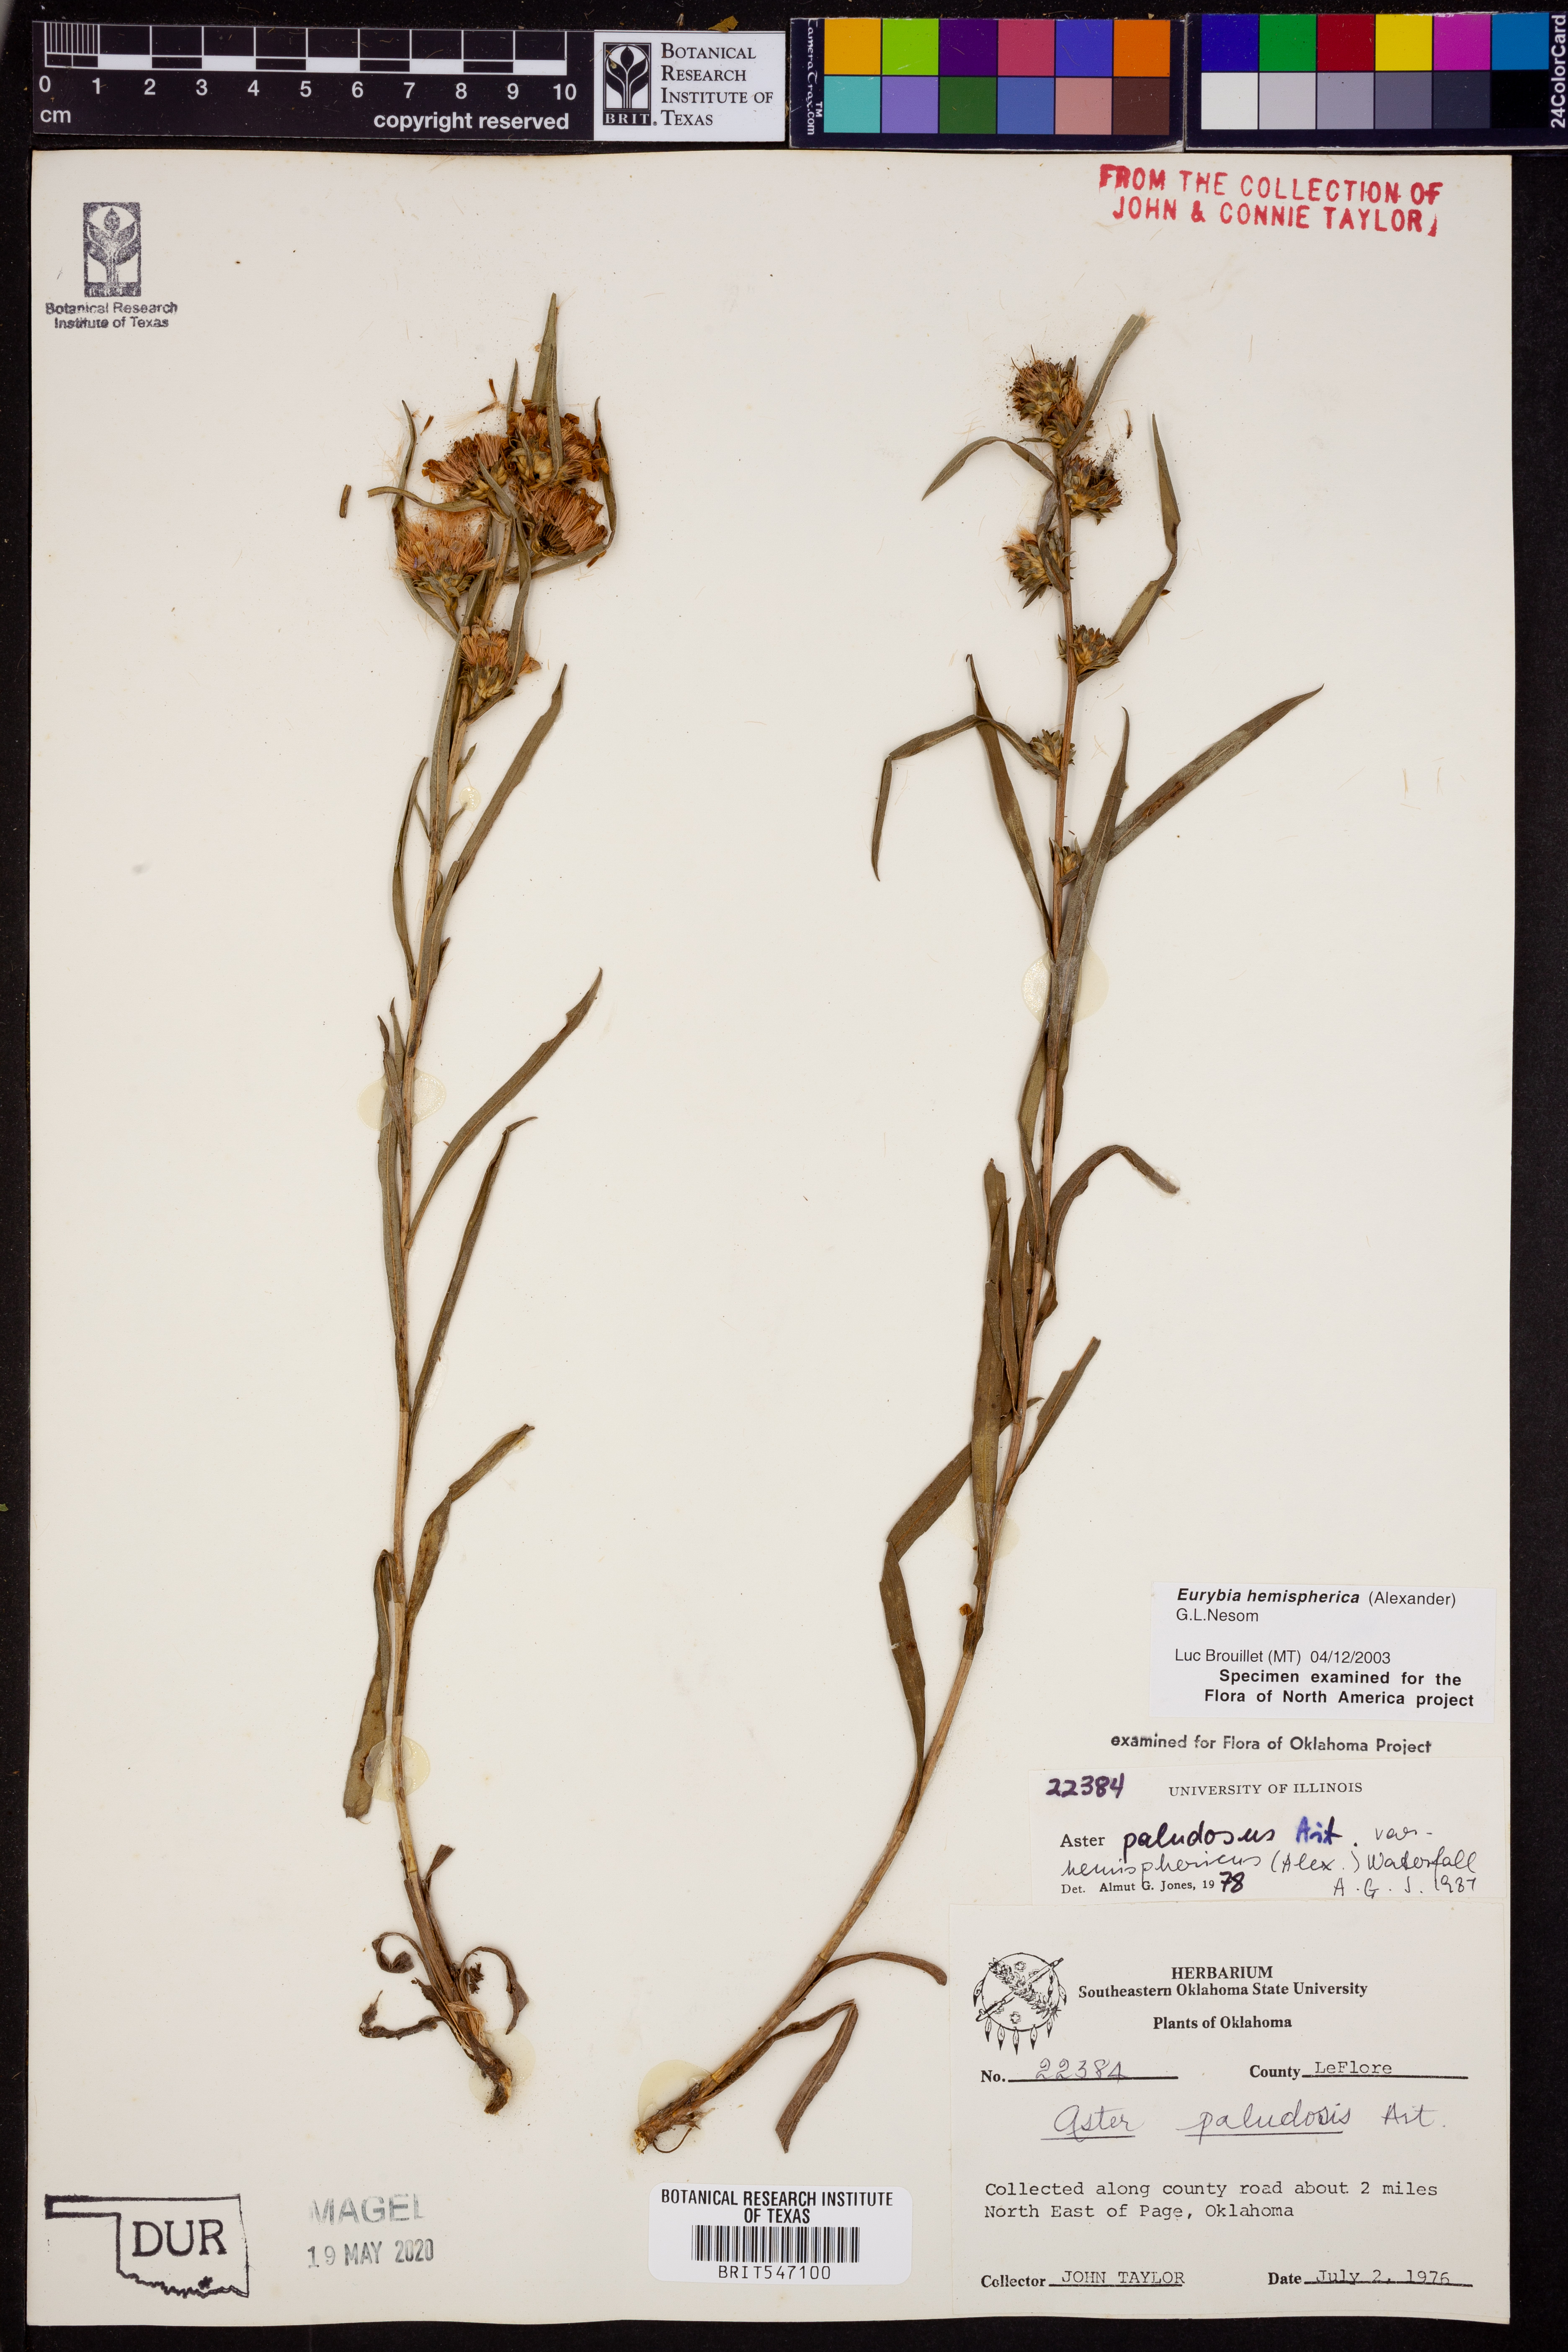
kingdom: Plantae
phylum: Tracheophyta
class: Magnoliopsida
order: Asterales
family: Asteraceae
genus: Eurybia
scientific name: Eurybia hemispherica
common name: Showy aster
